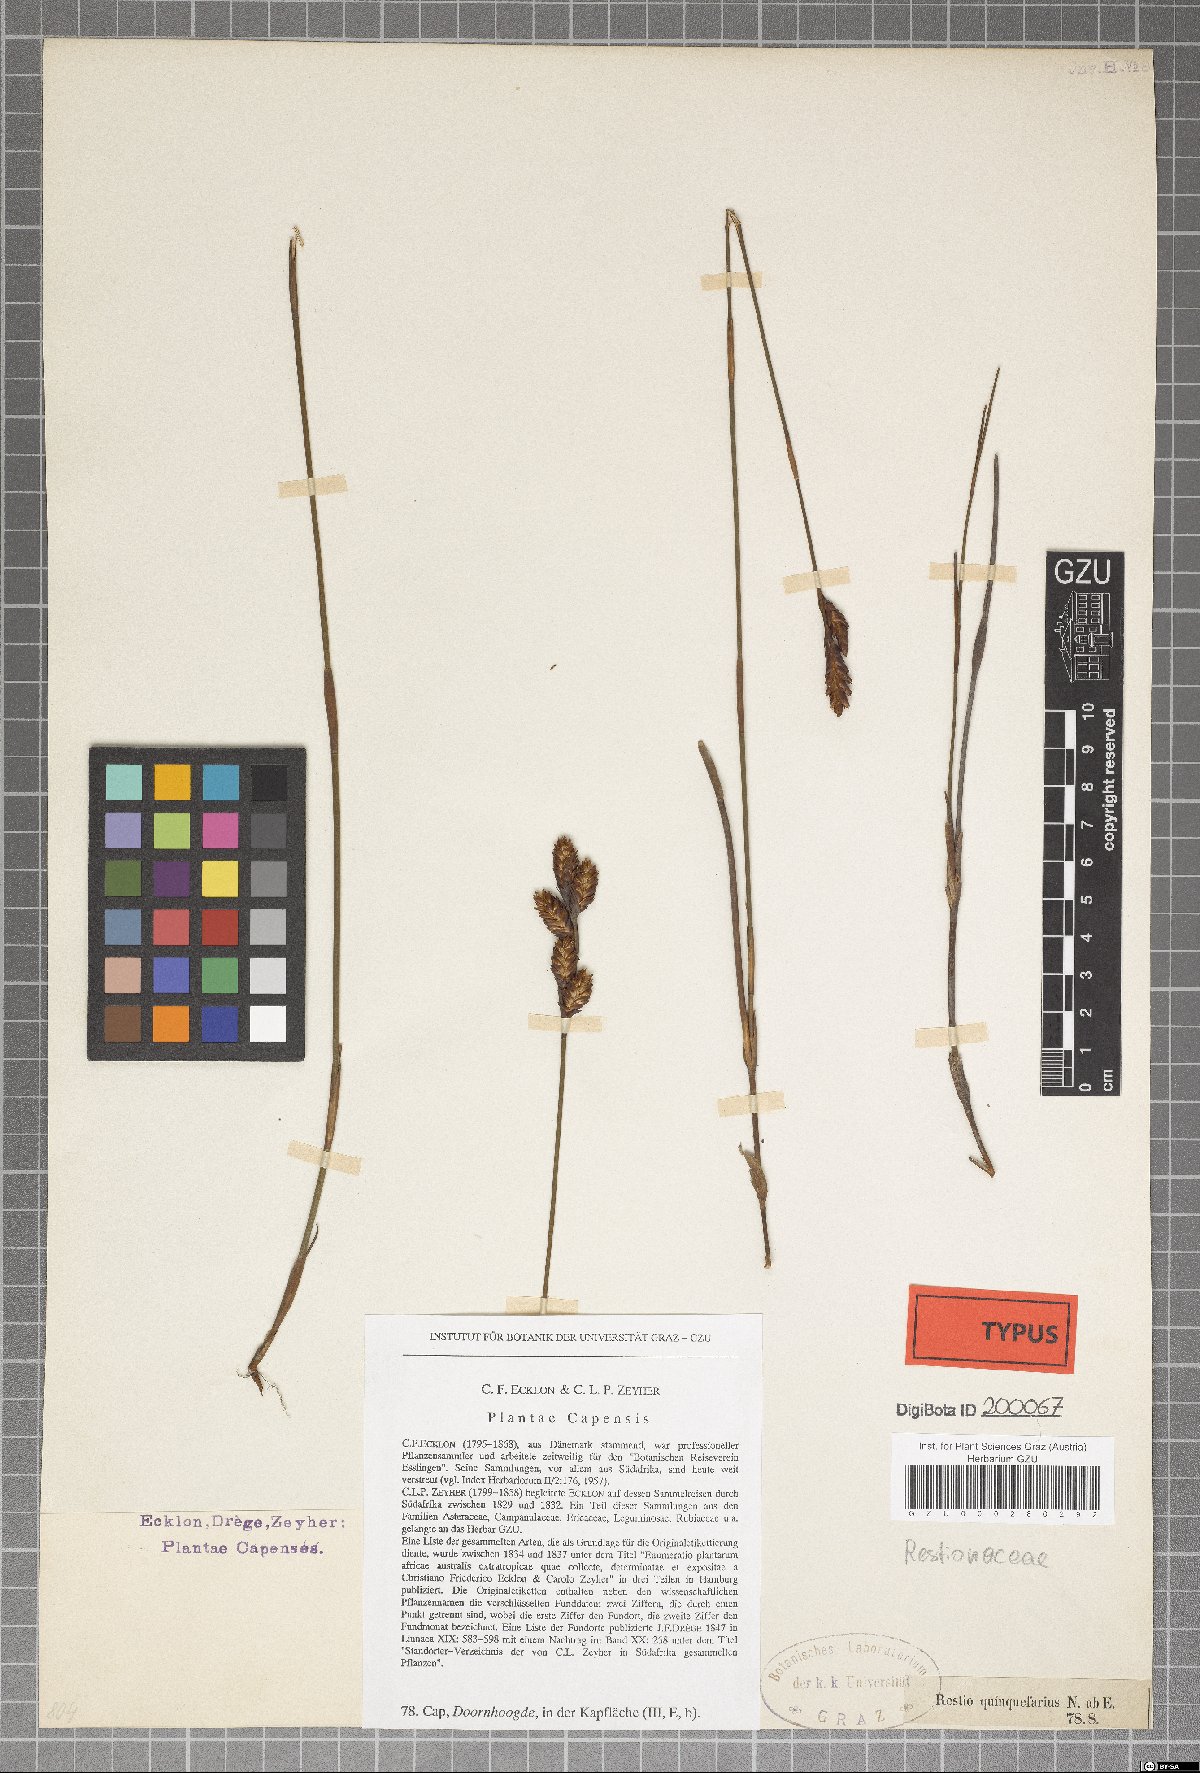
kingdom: Plantae
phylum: Tracheophyta
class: Liliopsida
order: Poales
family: Restionaceae
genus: Restio
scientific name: Restio quinquefarius
